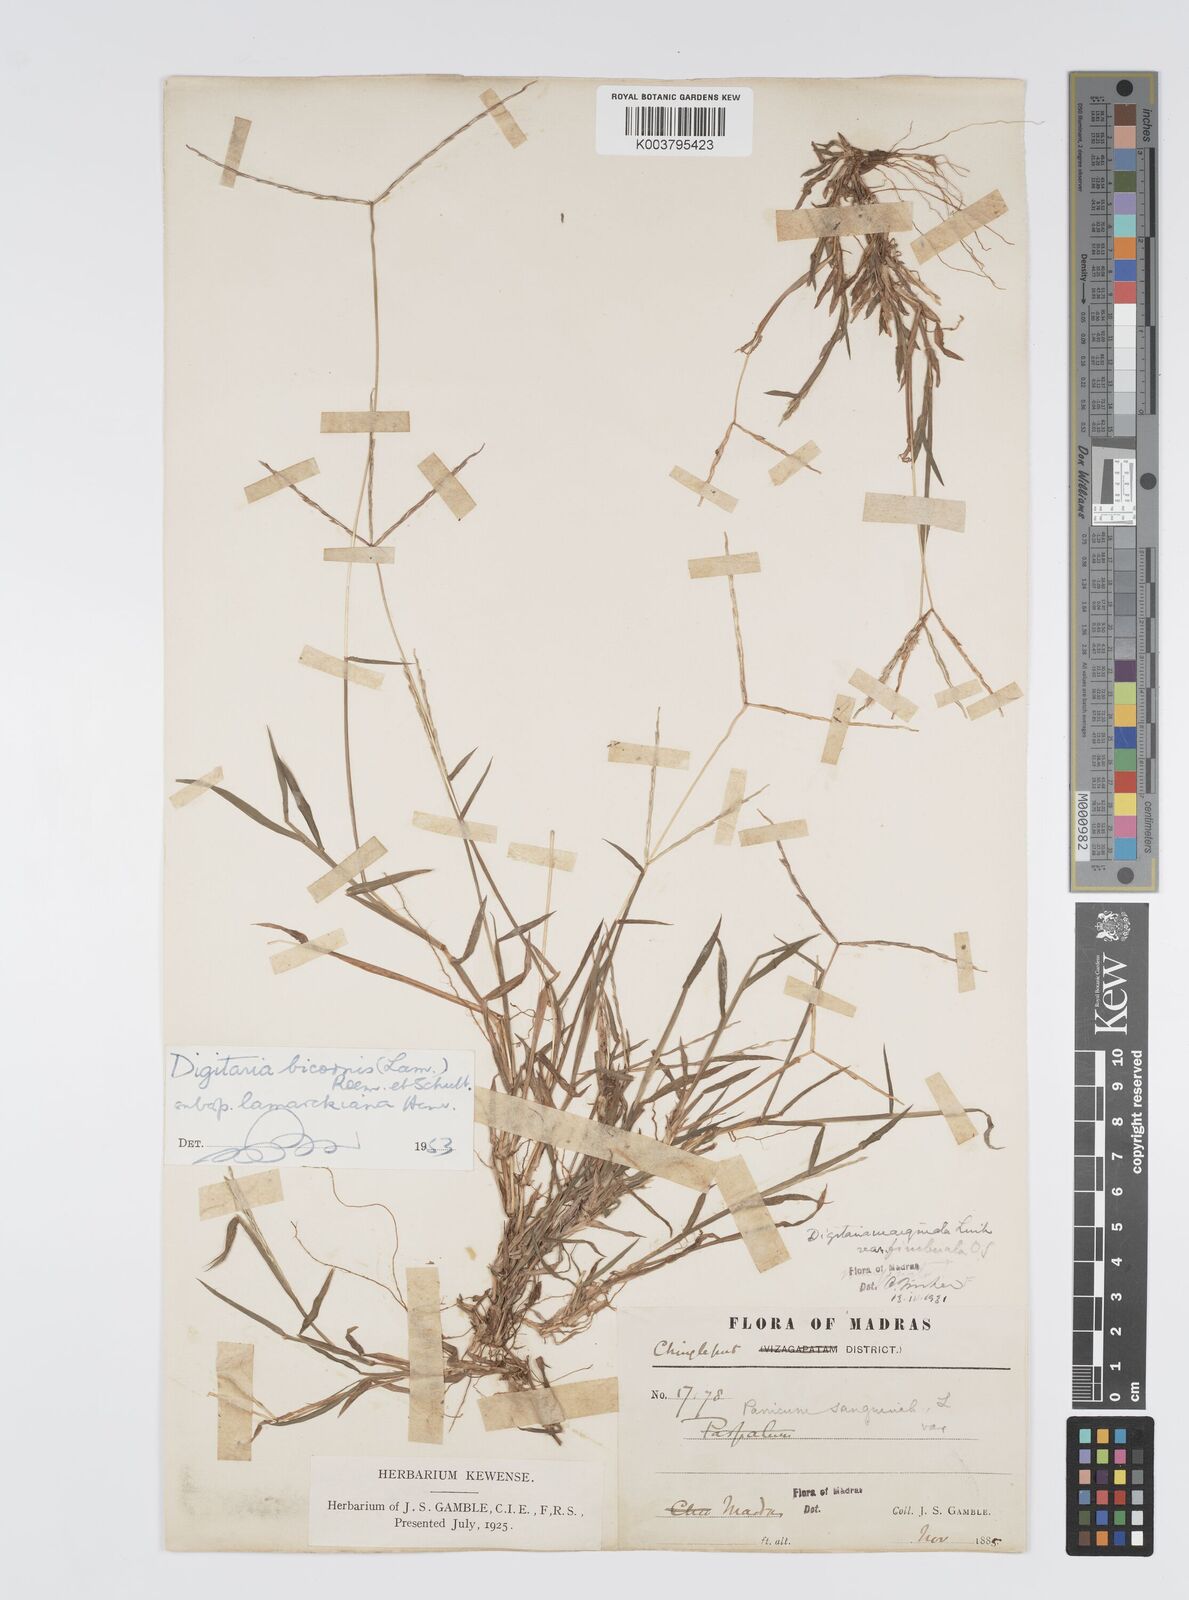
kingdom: Plantae
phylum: Tracheophyta
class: Liliopsida
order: Poales
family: Poaceae
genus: Digitaria
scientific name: Digitaria bicornis
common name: Asian crabgrass
